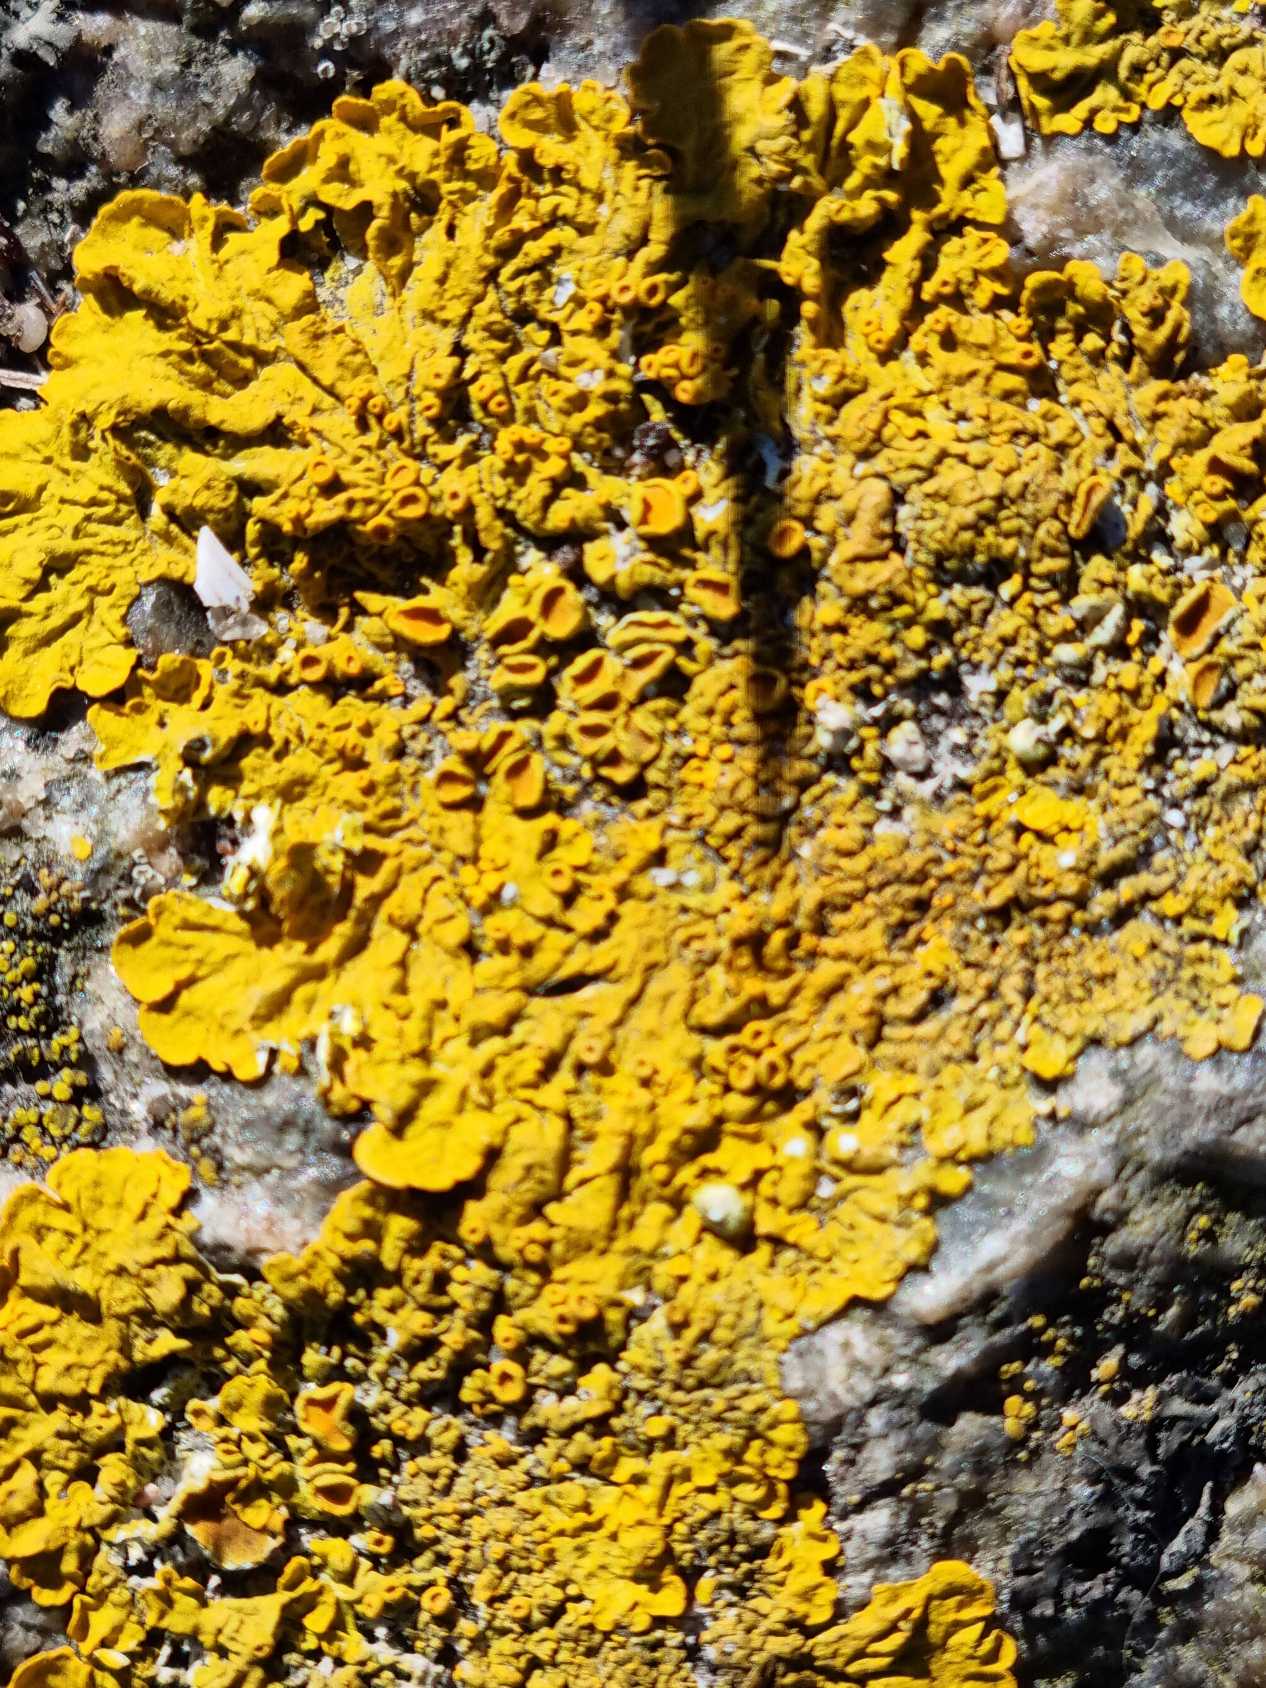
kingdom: Fungi
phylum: Ascomycota
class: Lecanoromycetes
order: Teloschistales
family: Teloschistaceae
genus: Xanthoria
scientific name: Xanthoria parietina
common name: Almindelig væggelav
